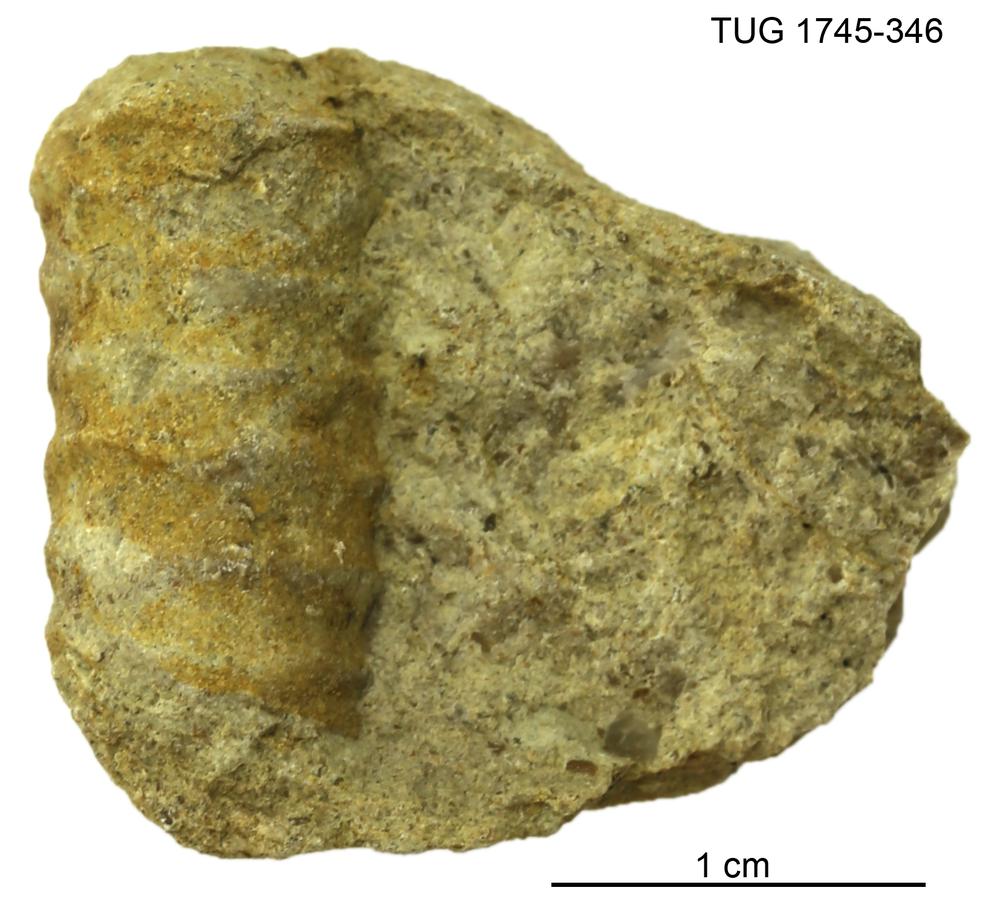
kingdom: Animalia
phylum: Mollusca
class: Cephalopoda
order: Orthocerida
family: Orthoceratidae
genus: Ctenoceras
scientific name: Ctenoceras
